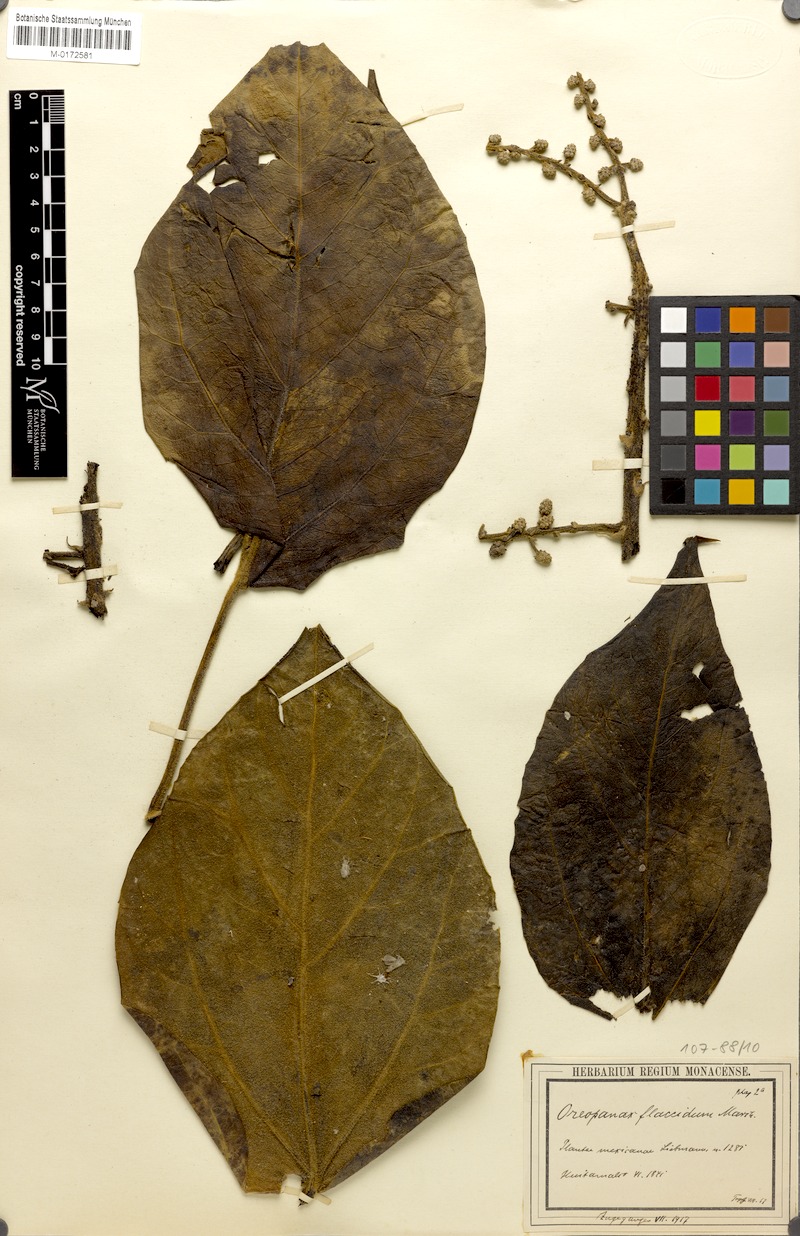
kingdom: Plantae
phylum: Tracheophyta
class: Magnoliopsida
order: Apiales
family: Araliaceae
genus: Oreopanax
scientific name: Oreopanax flaccidus
